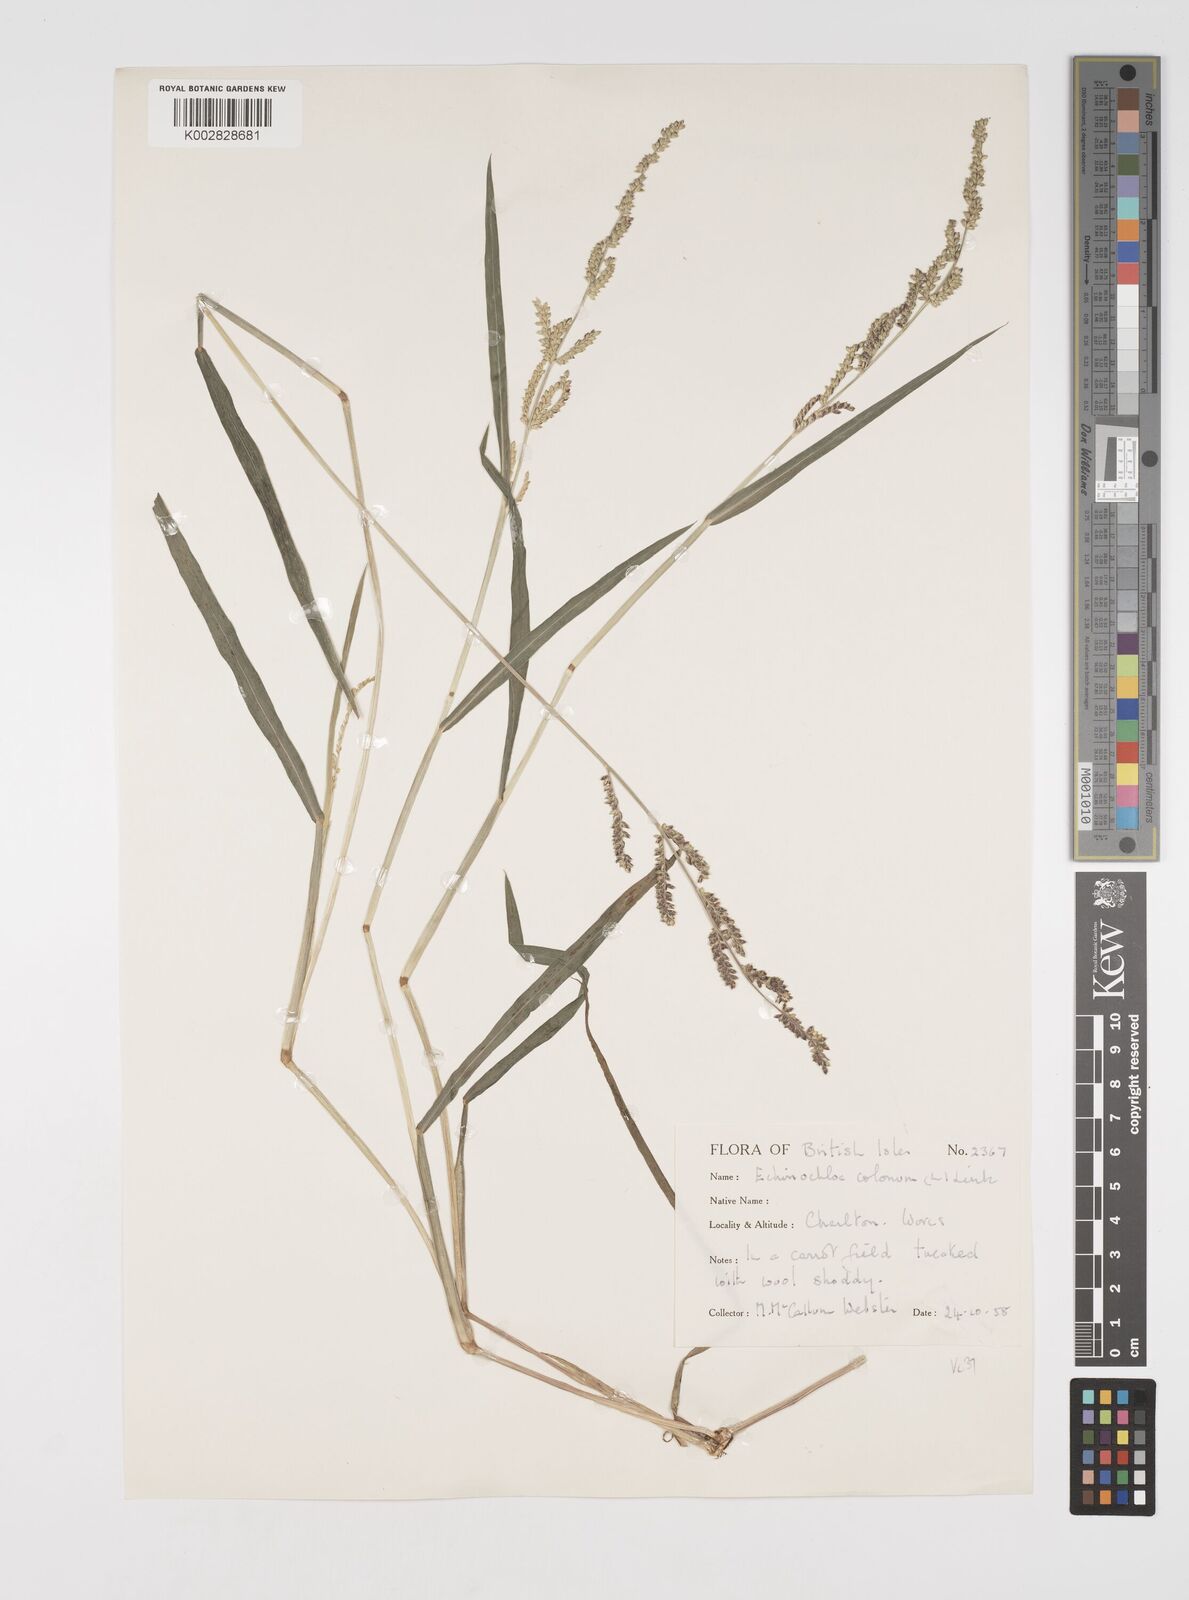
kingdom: Plantae
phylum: Tracheophyta
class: Liliopsida
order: Poales
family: Poaceae
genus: Echinochloa
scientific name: Echinochloa colonum
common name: Jungle rice
